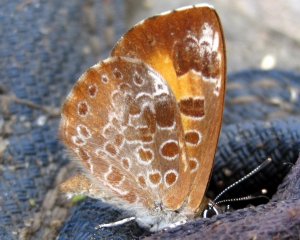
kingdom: Animalia
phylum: Arthropoda
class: Insecta
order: Lepidoptera
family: Lycaenidae
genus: Feniseca
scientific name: Feniseca tarquinius
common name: Harvester
